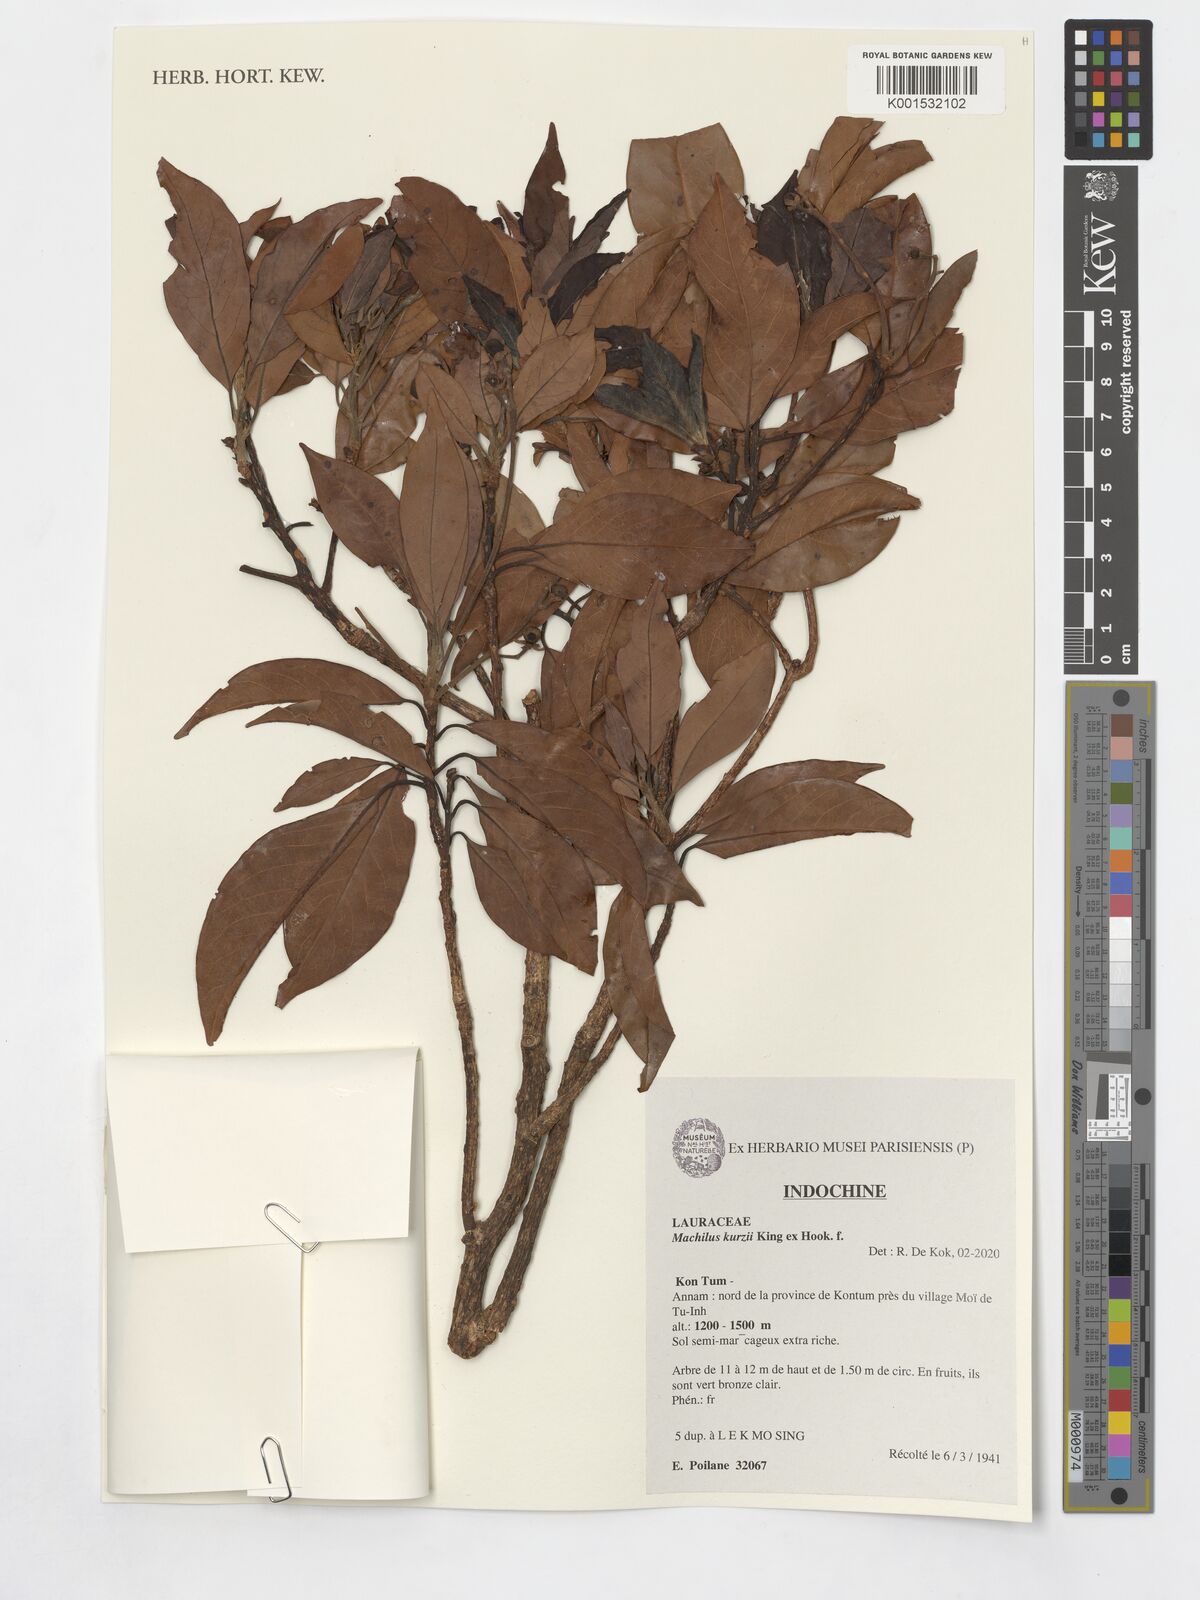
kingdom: Plantae
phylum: Tracheophyta
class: Magnoliopsida
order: Laurales
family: Lauraceae
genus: Machilus
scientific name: Machilus kurzii
